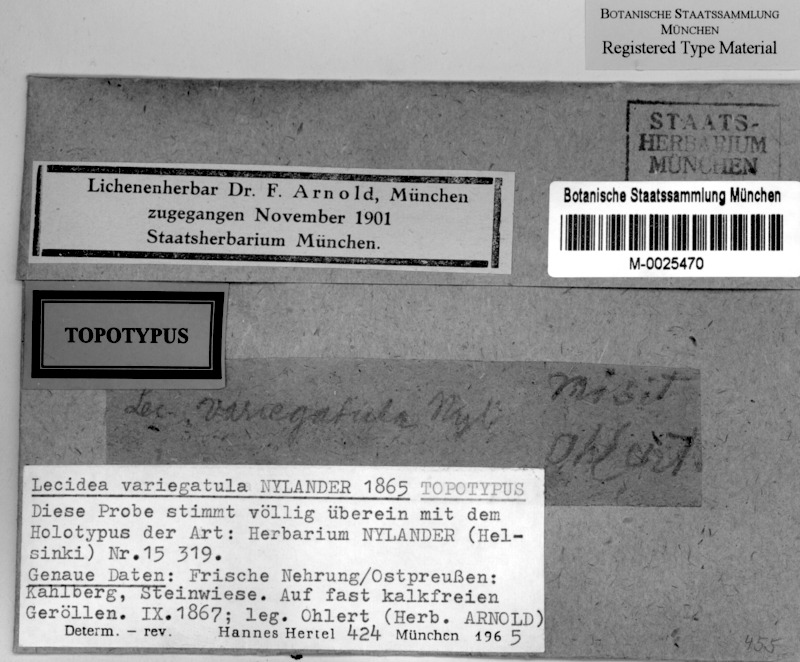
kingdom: Fungi
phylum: Ascomycota
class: Lecanoromycetes
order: Lecideales
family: Lecideaceae
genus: Lecidea
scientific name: Lecidea variegatula
